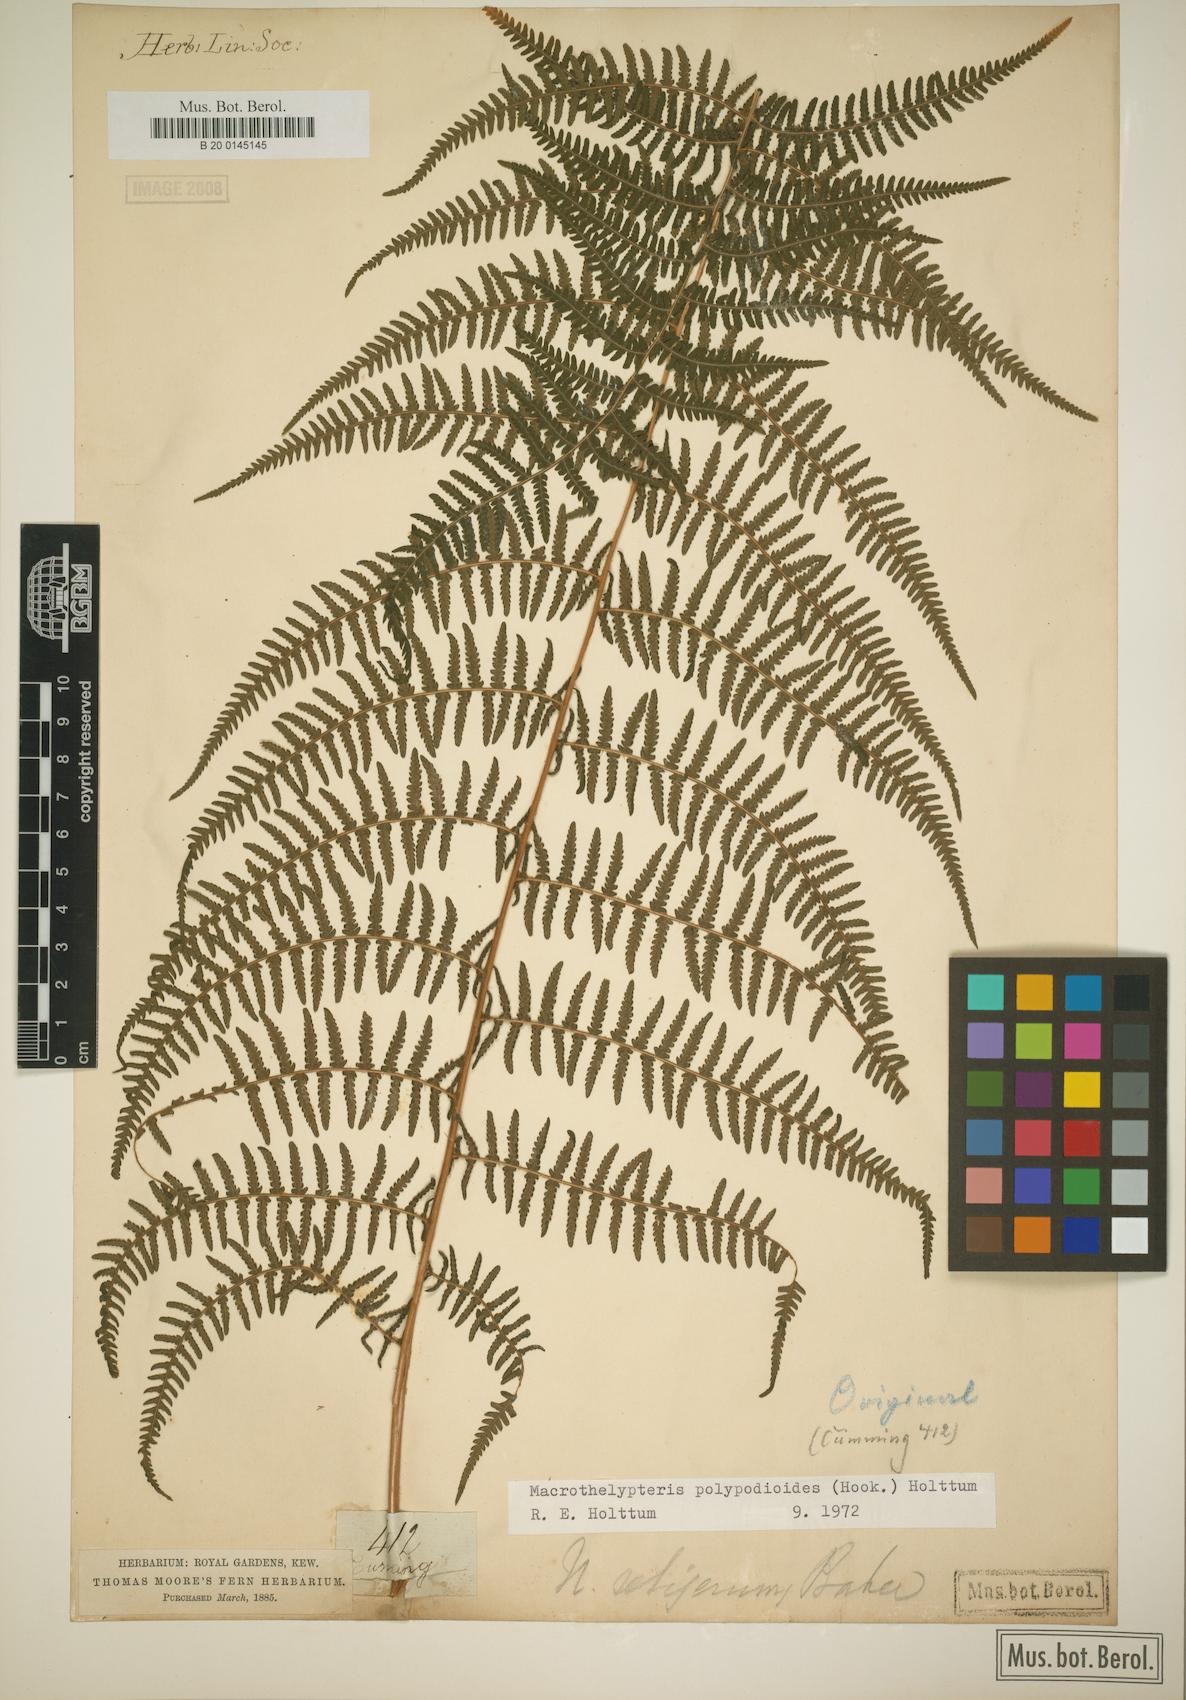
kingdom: Plantae
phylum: Tracheophyta
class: Polypodiopsida
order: Polypodiales
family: Thelypteridaceae
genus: Macrothelypteris
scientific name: Macrothelypteris polypodioides
